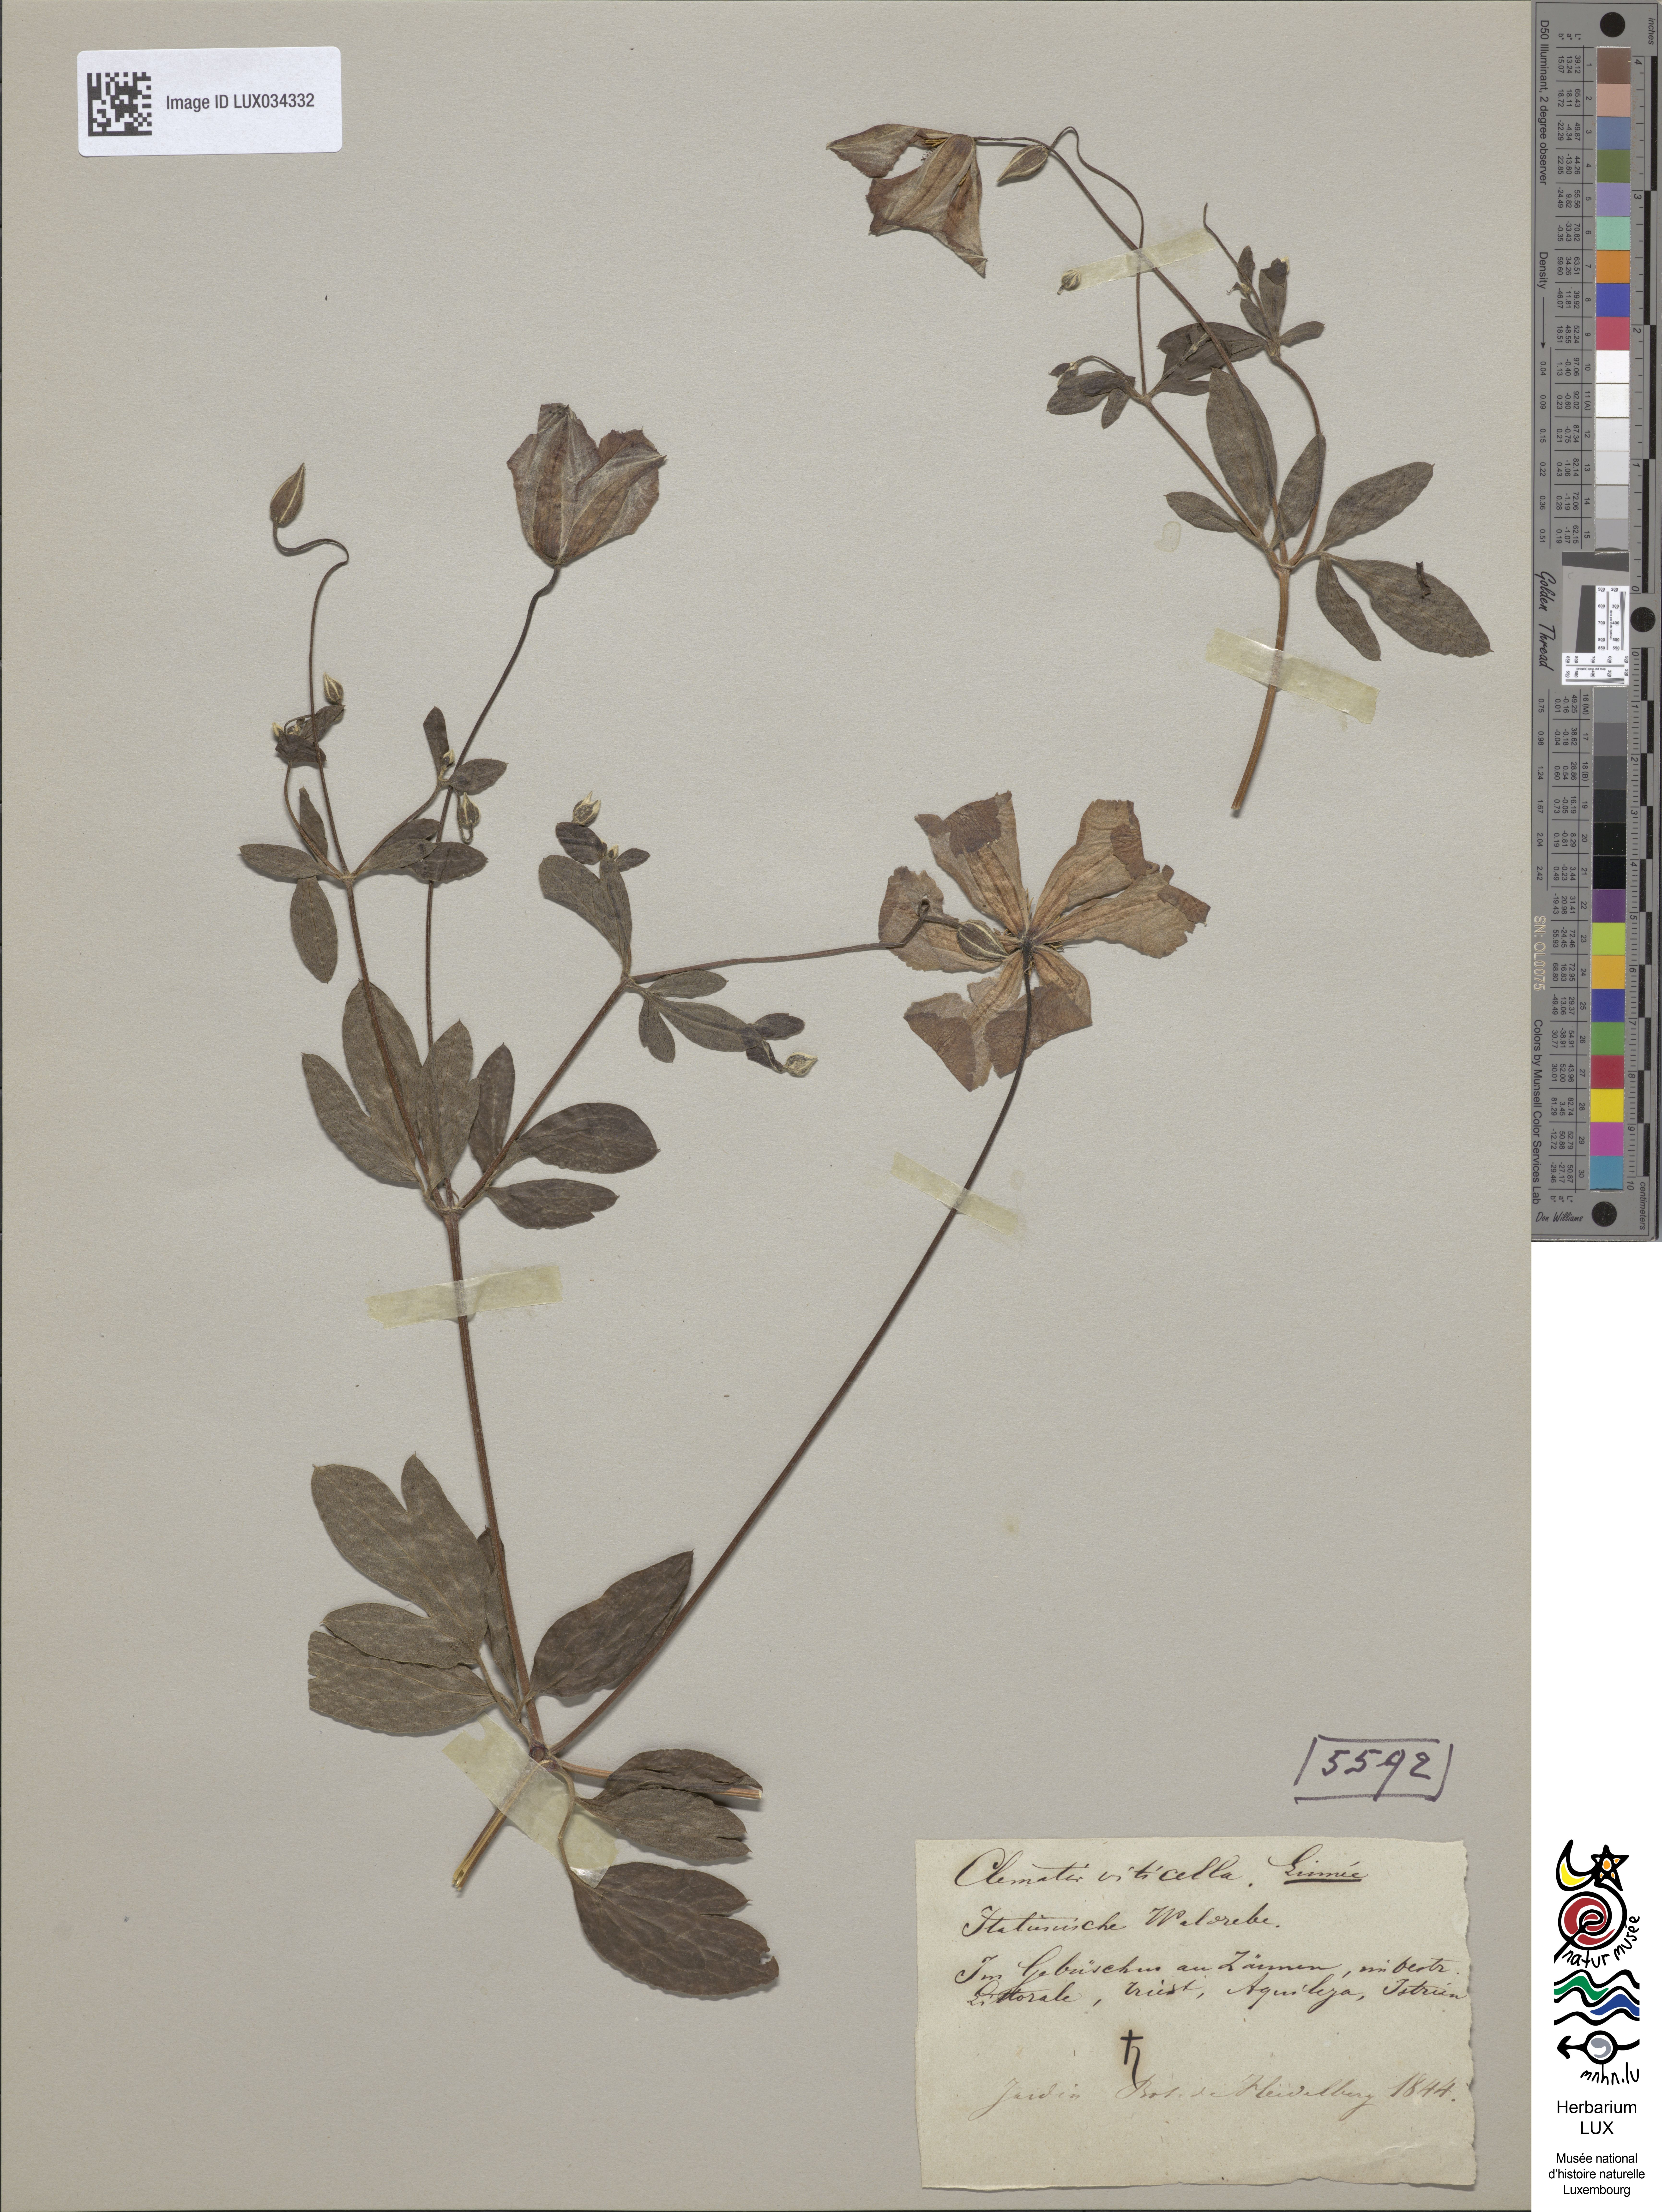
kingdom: Plantae
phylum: Tracheophyta
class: Magnoliopsida
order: Ranunculales
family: Ranunculaceae
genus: Clematis
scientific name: Clematis viticella
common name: Purple clematis
